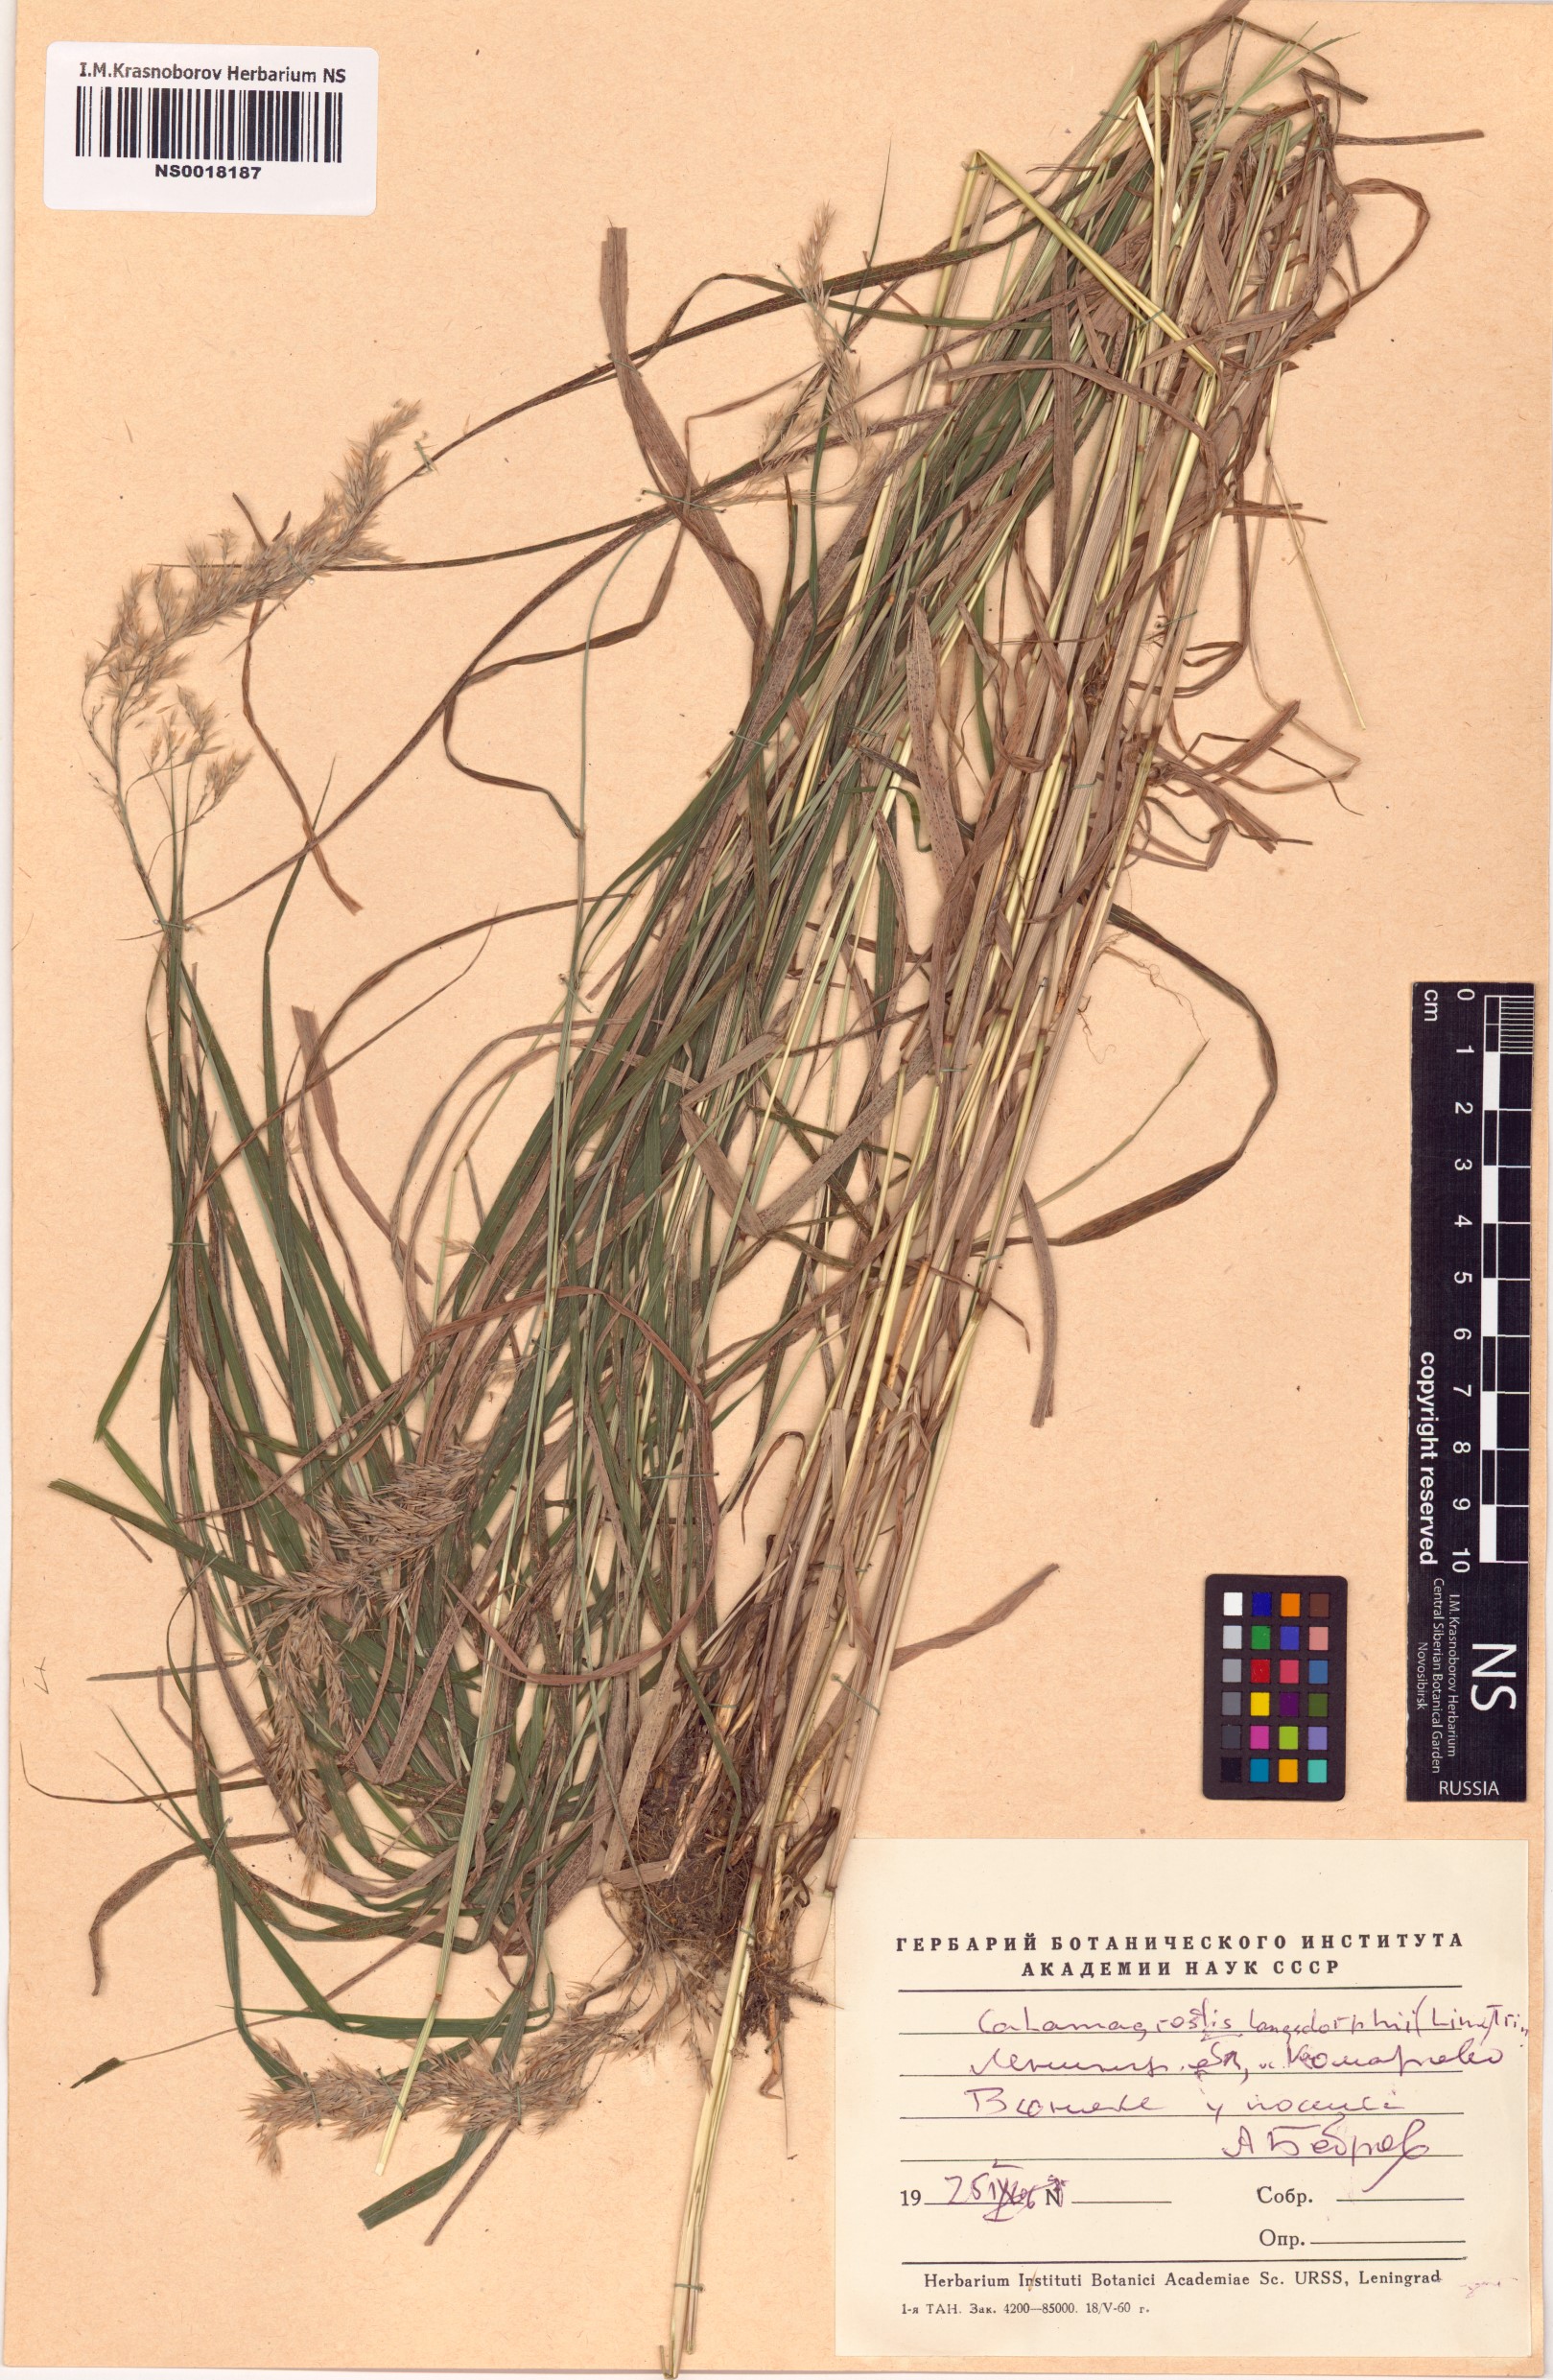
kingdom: Plantae
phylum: Tracheophyta
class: Liliopsida
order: Poales
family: Poaceae
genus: Calamagrostis
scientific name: Calamagrostis purpurea
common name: Scandinavian small-reed
